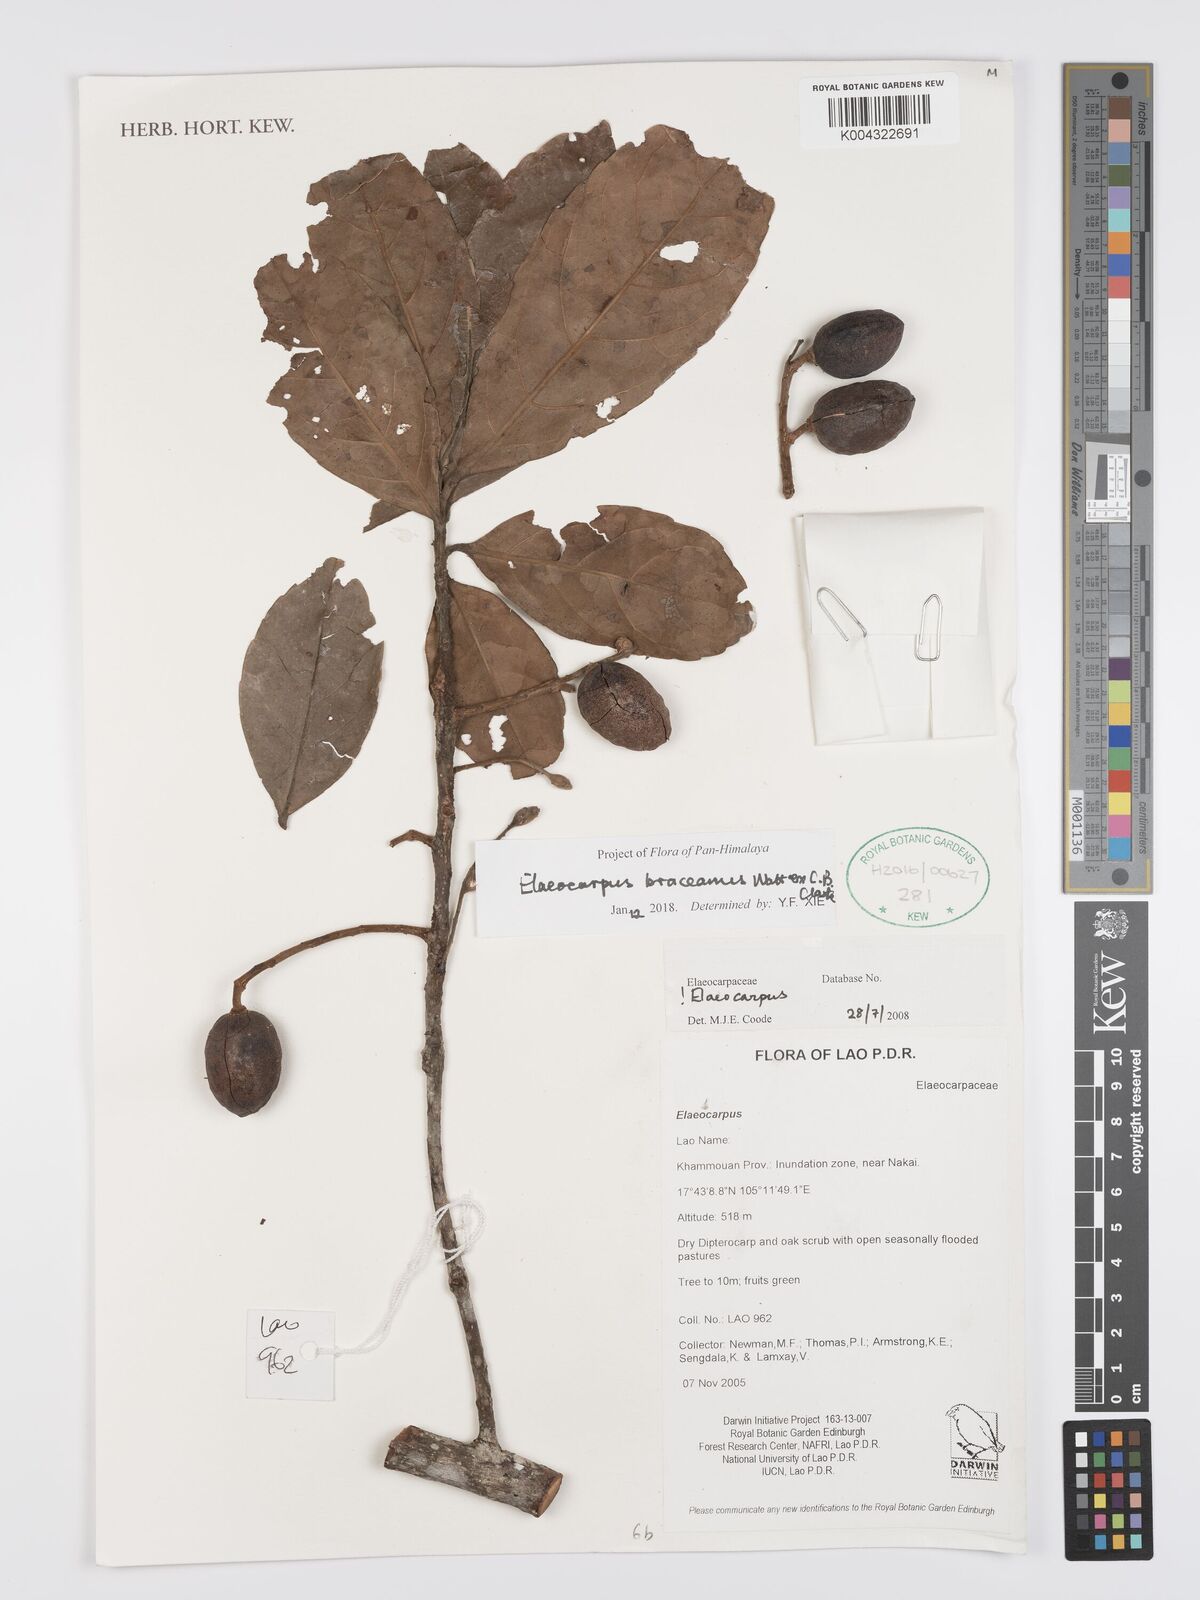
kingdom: Plantae
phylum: Tracheophyta
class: Magnoliopsida
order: Oxalidales
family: Elaeocarpaceae
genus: Elaeocarpus
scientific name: Elaeocarpus braceanus
